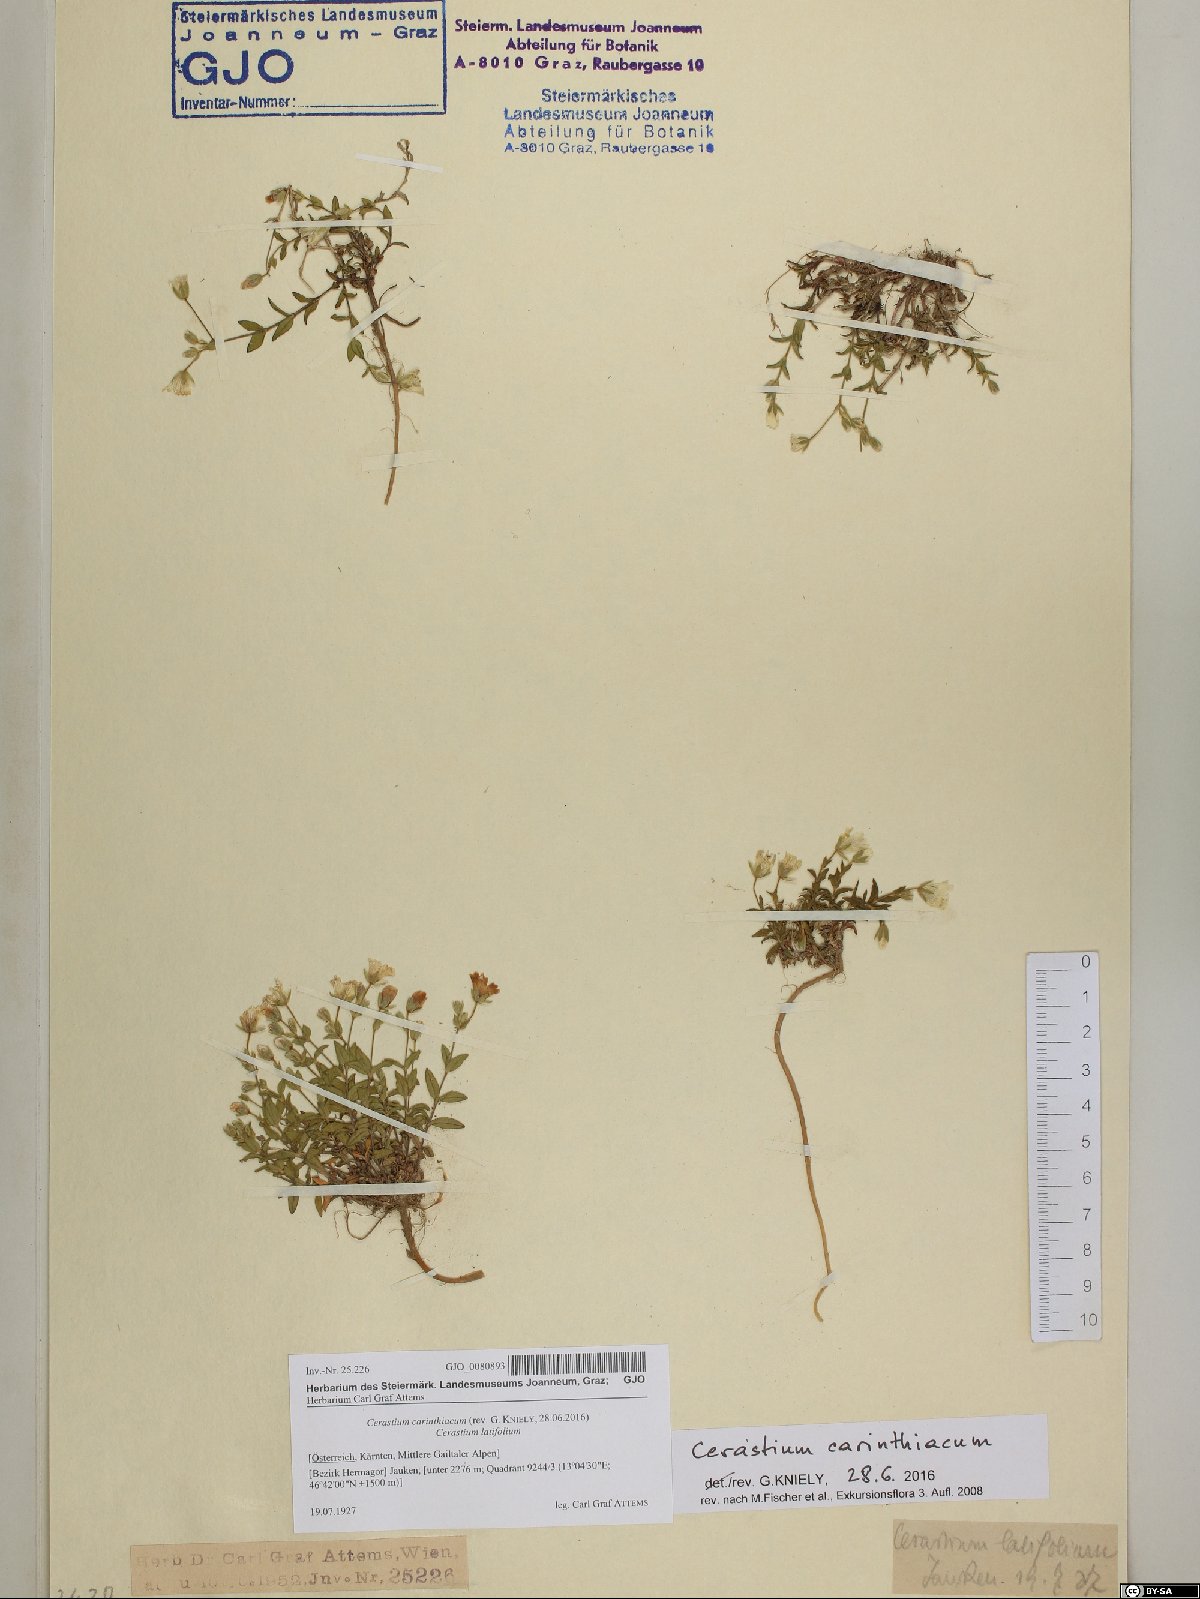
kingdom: Plantae
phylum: Tracheophyta
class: Magnoliopsida
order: Caryophyllales
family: Caryophyllaceae
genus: Cerastium
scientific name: Cerastium carinthiacum
